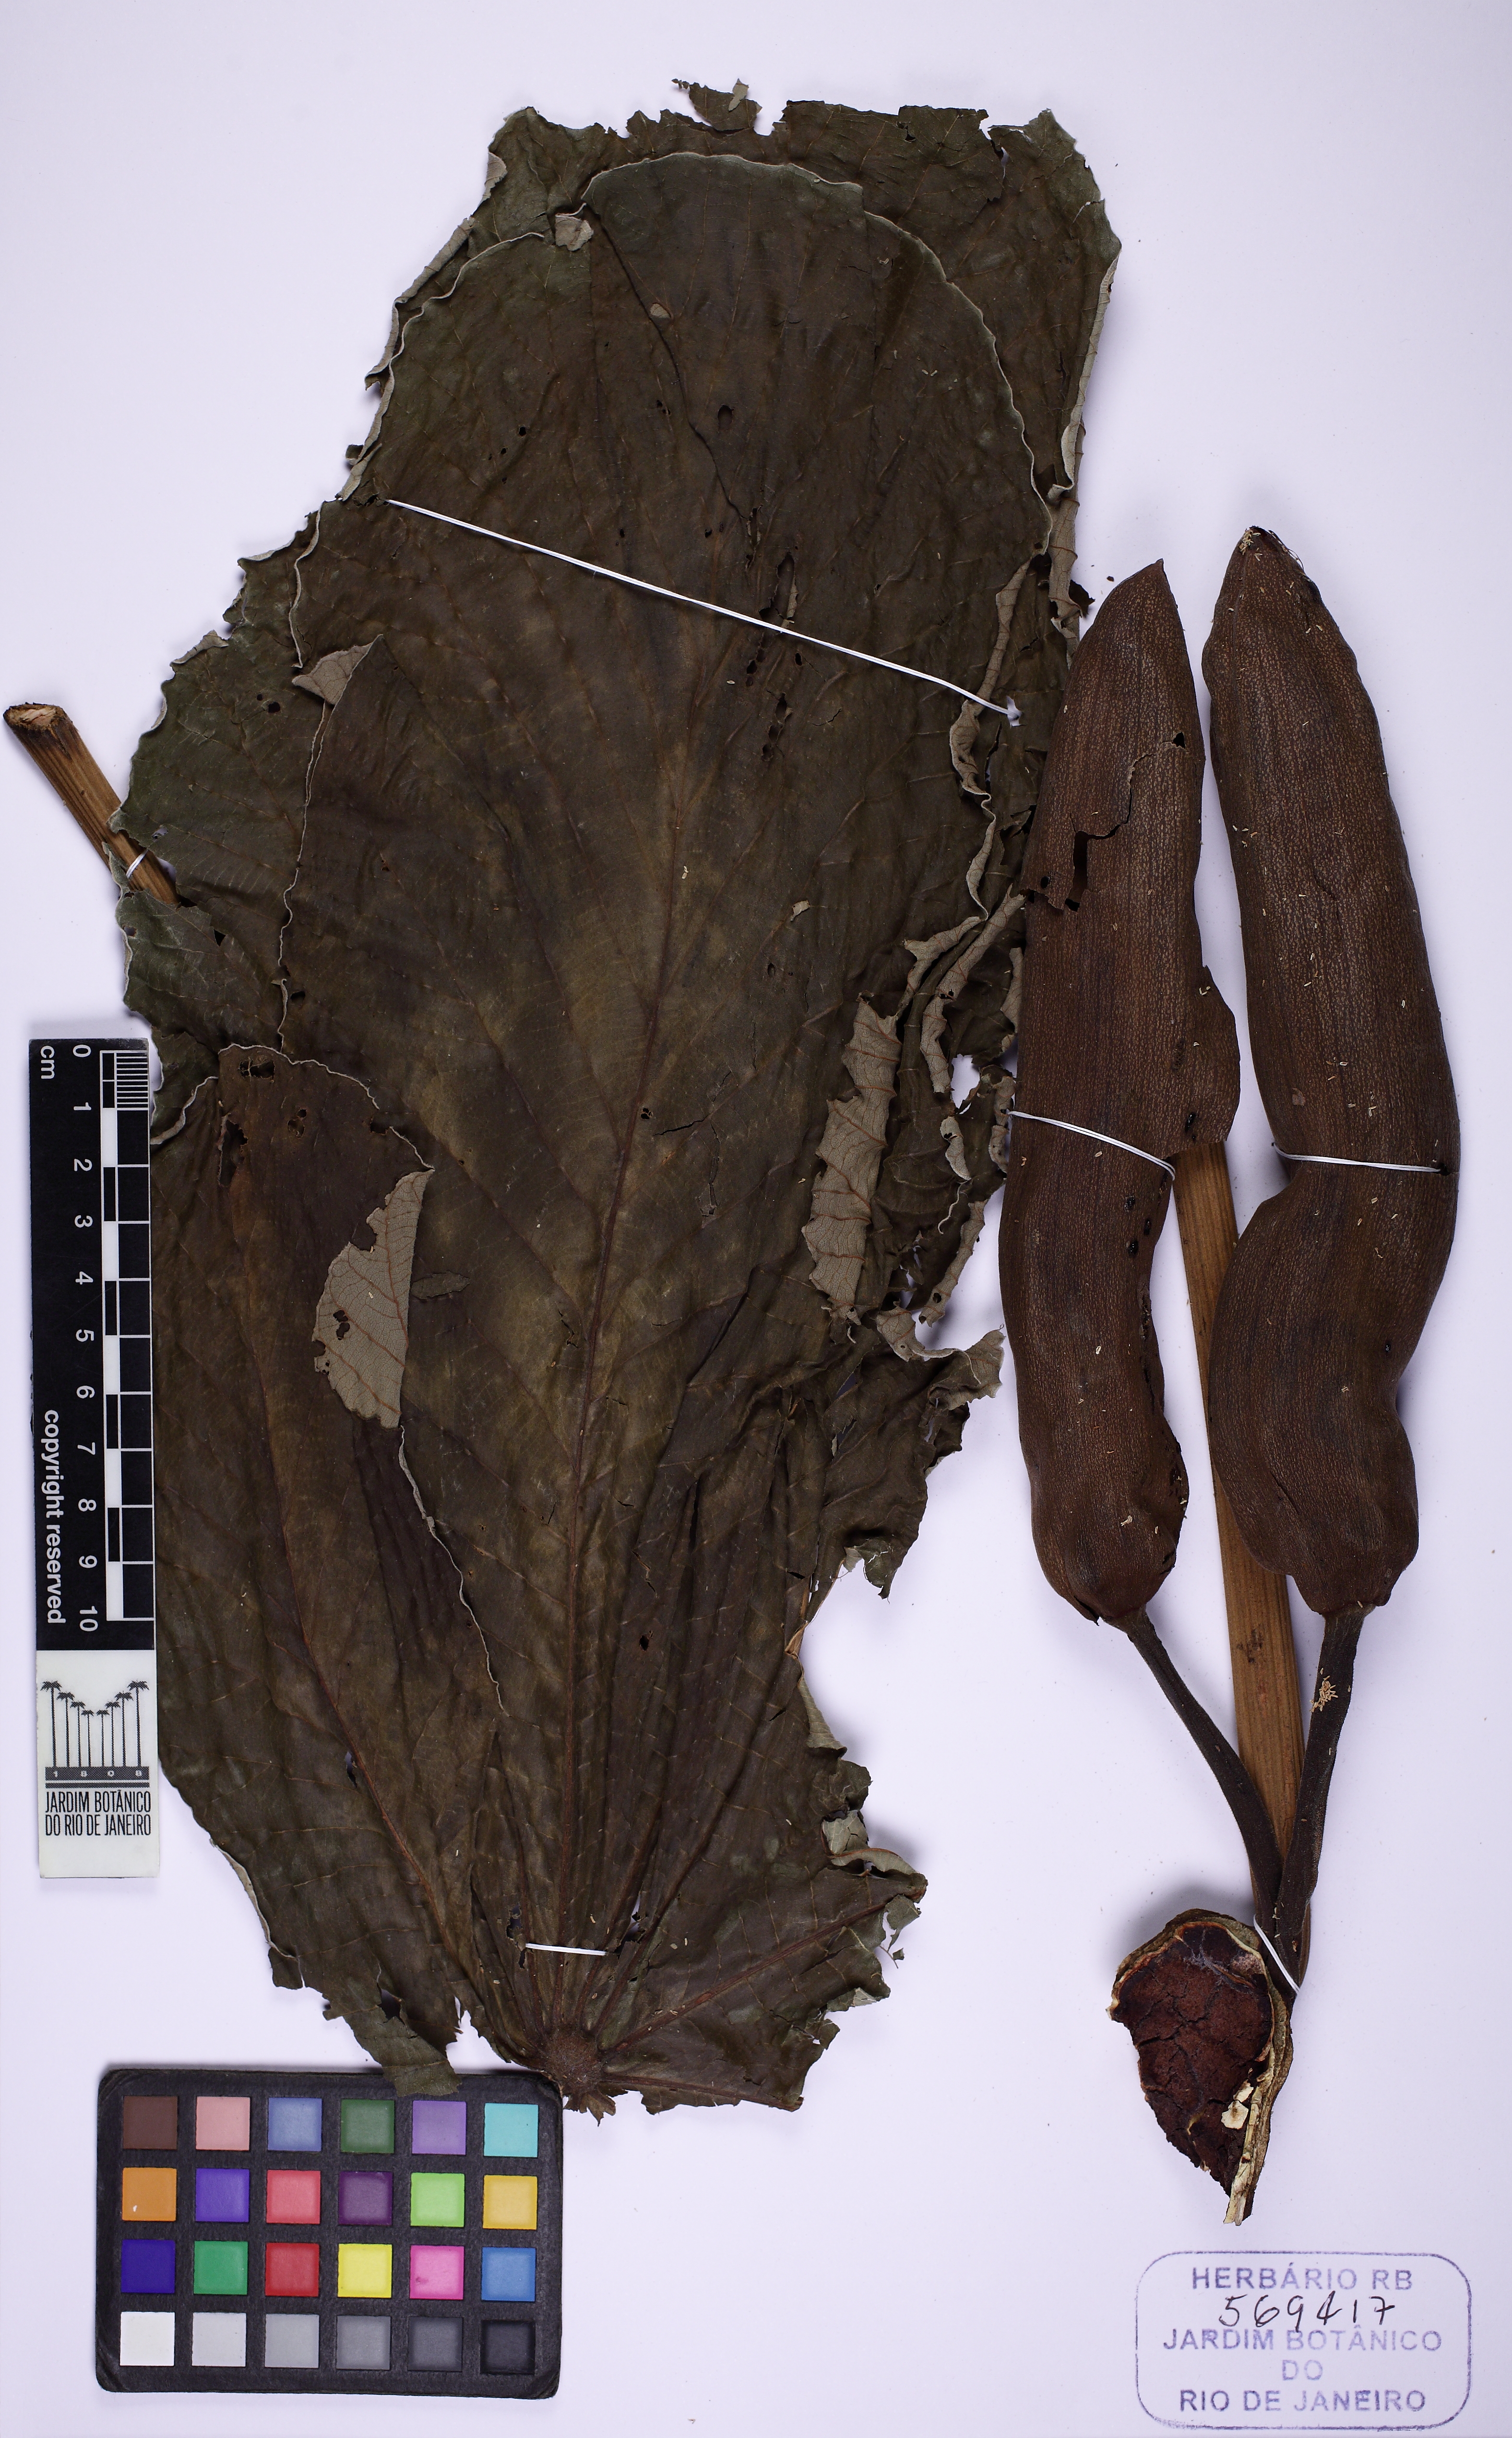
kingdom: Plantae
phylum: Tracheophyta
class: Magnoliopsida
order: Rosales
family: Urticaceae
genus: Cecropia
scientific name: Cecropia glaziovii
